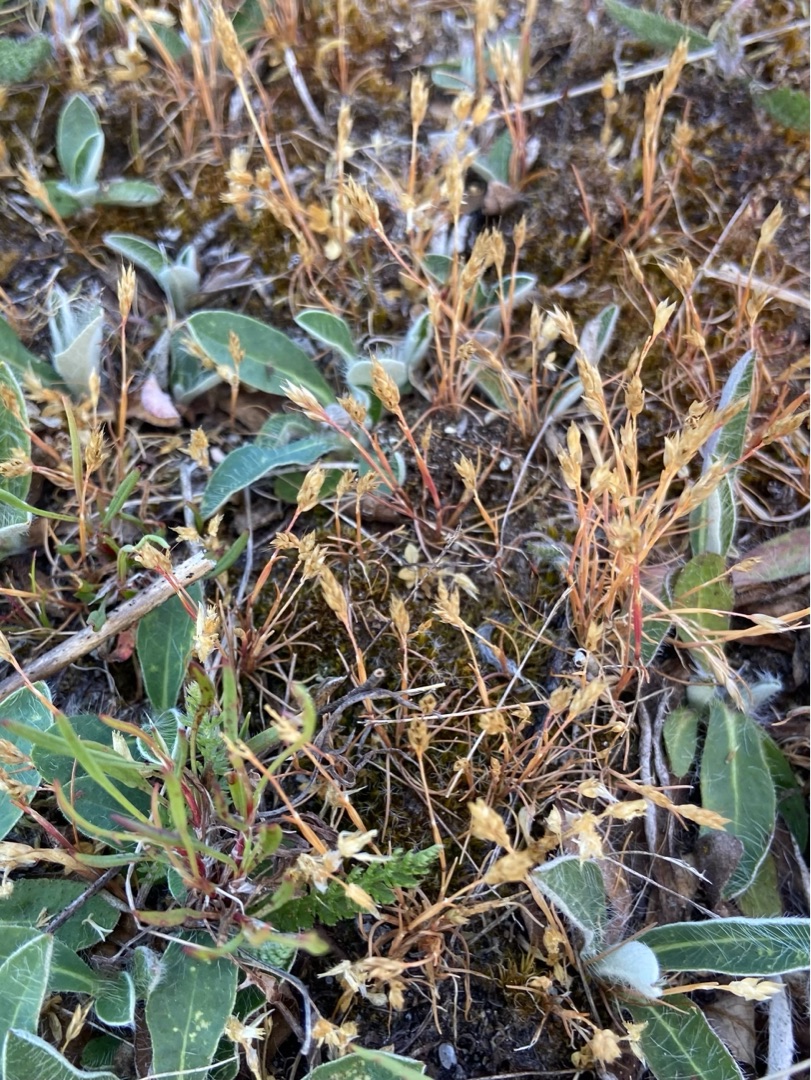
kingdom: Plantae
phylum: Tracheophyta
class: Liliopsida
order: Poales
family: Poaceae
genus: Aira
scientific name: Aira praecox
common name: Tidlig dværgbunke
